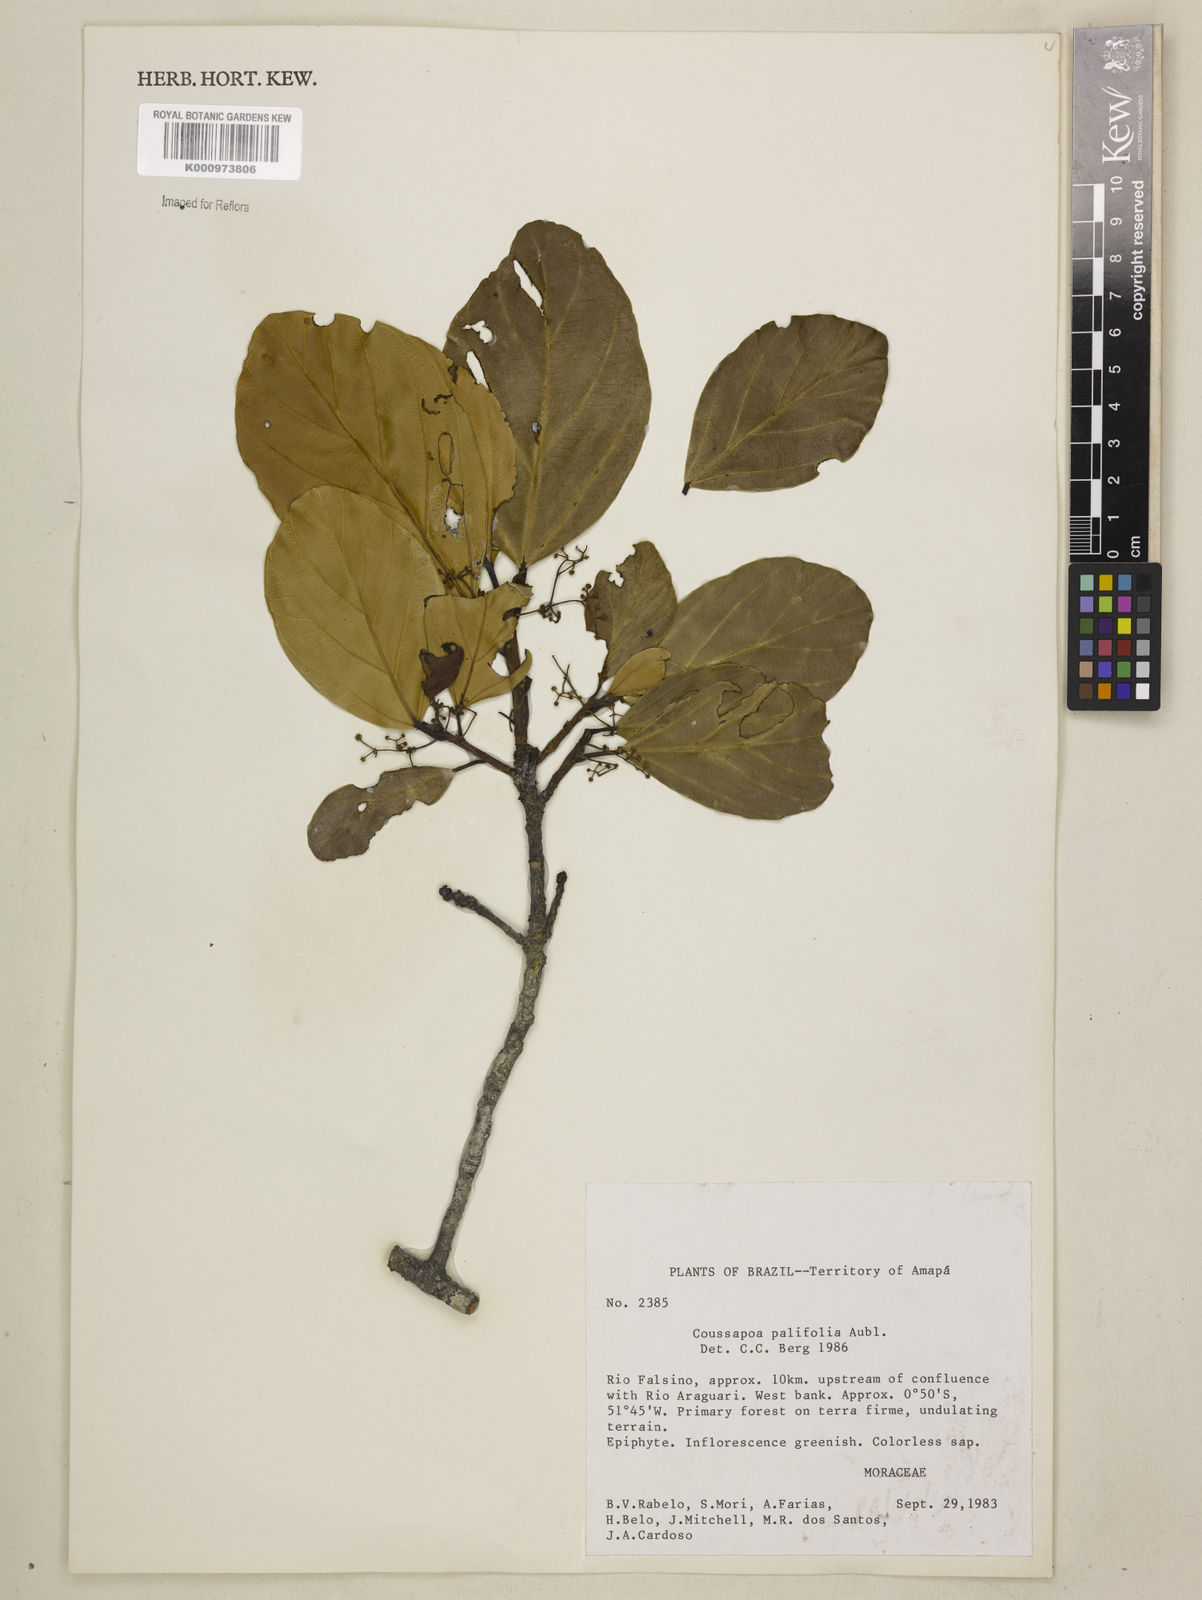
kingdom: Plantae
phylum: Tracheophyta
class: Magnoliopsida
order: Rosales
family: Urticaceae
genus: Coussapoa
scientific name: Coussapoa parvifolia
